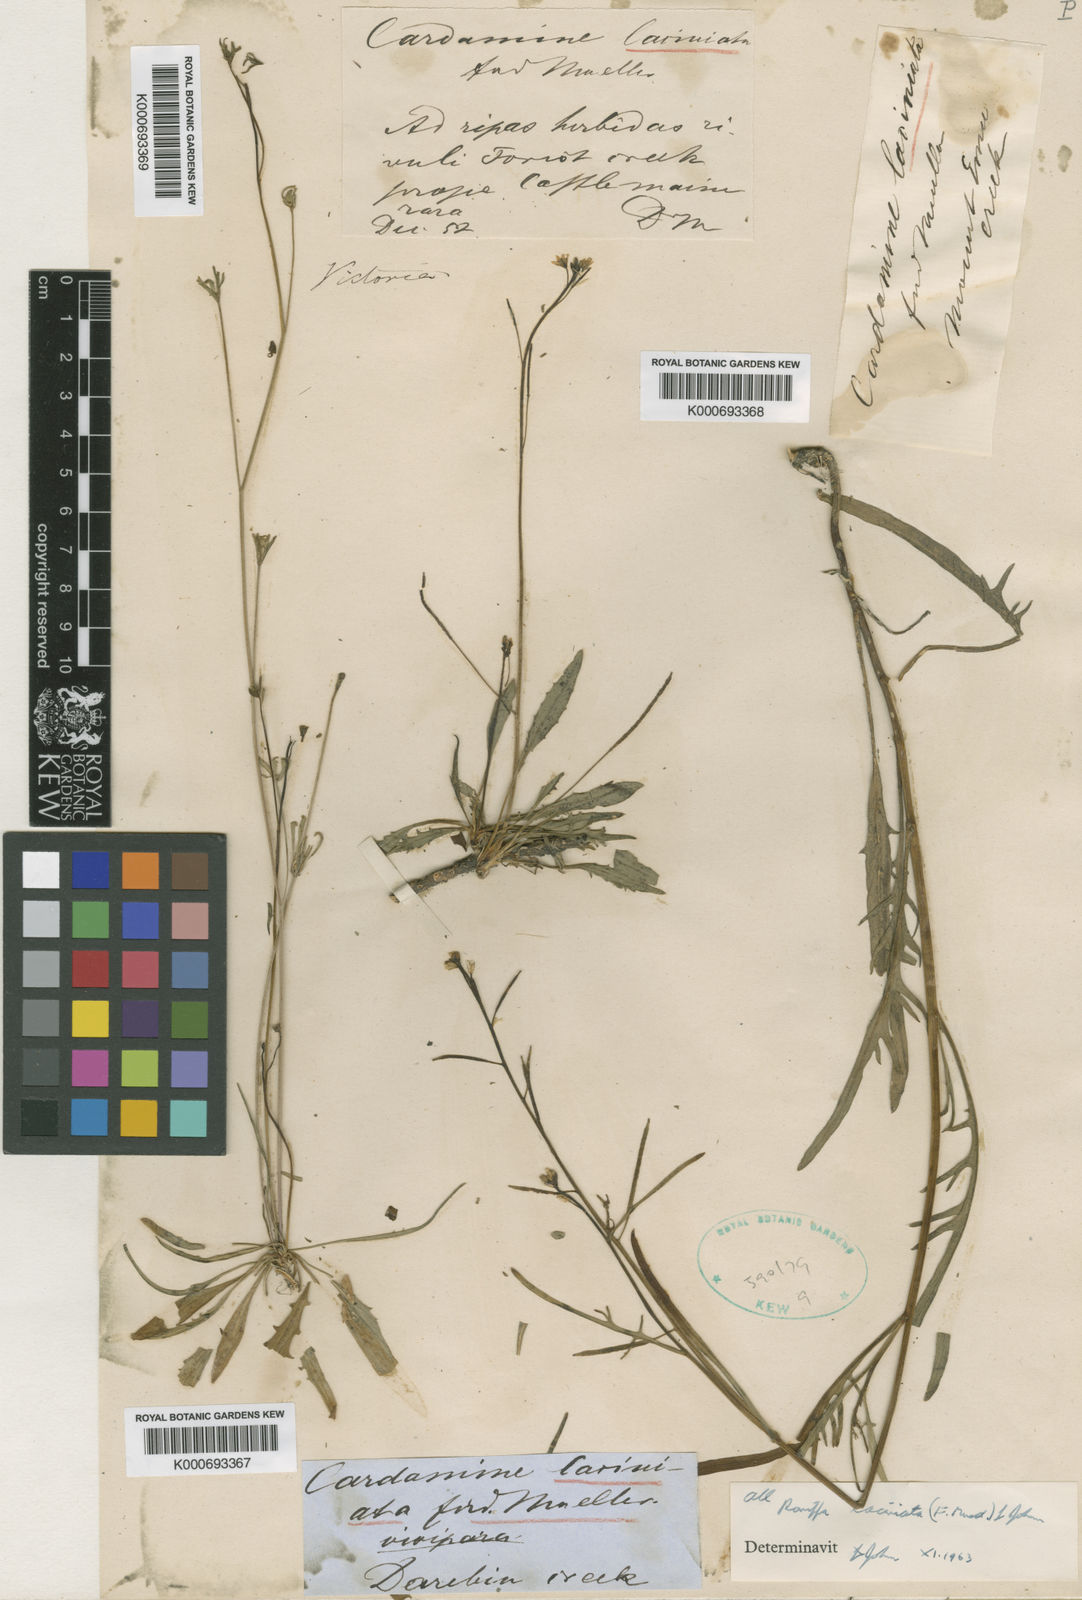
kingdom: Plantae
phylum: Tracheophyta
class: Magnoliopsida
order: Brassicales
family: Brassicaceae
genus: Rorippa
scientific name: Rorippa laciniata
